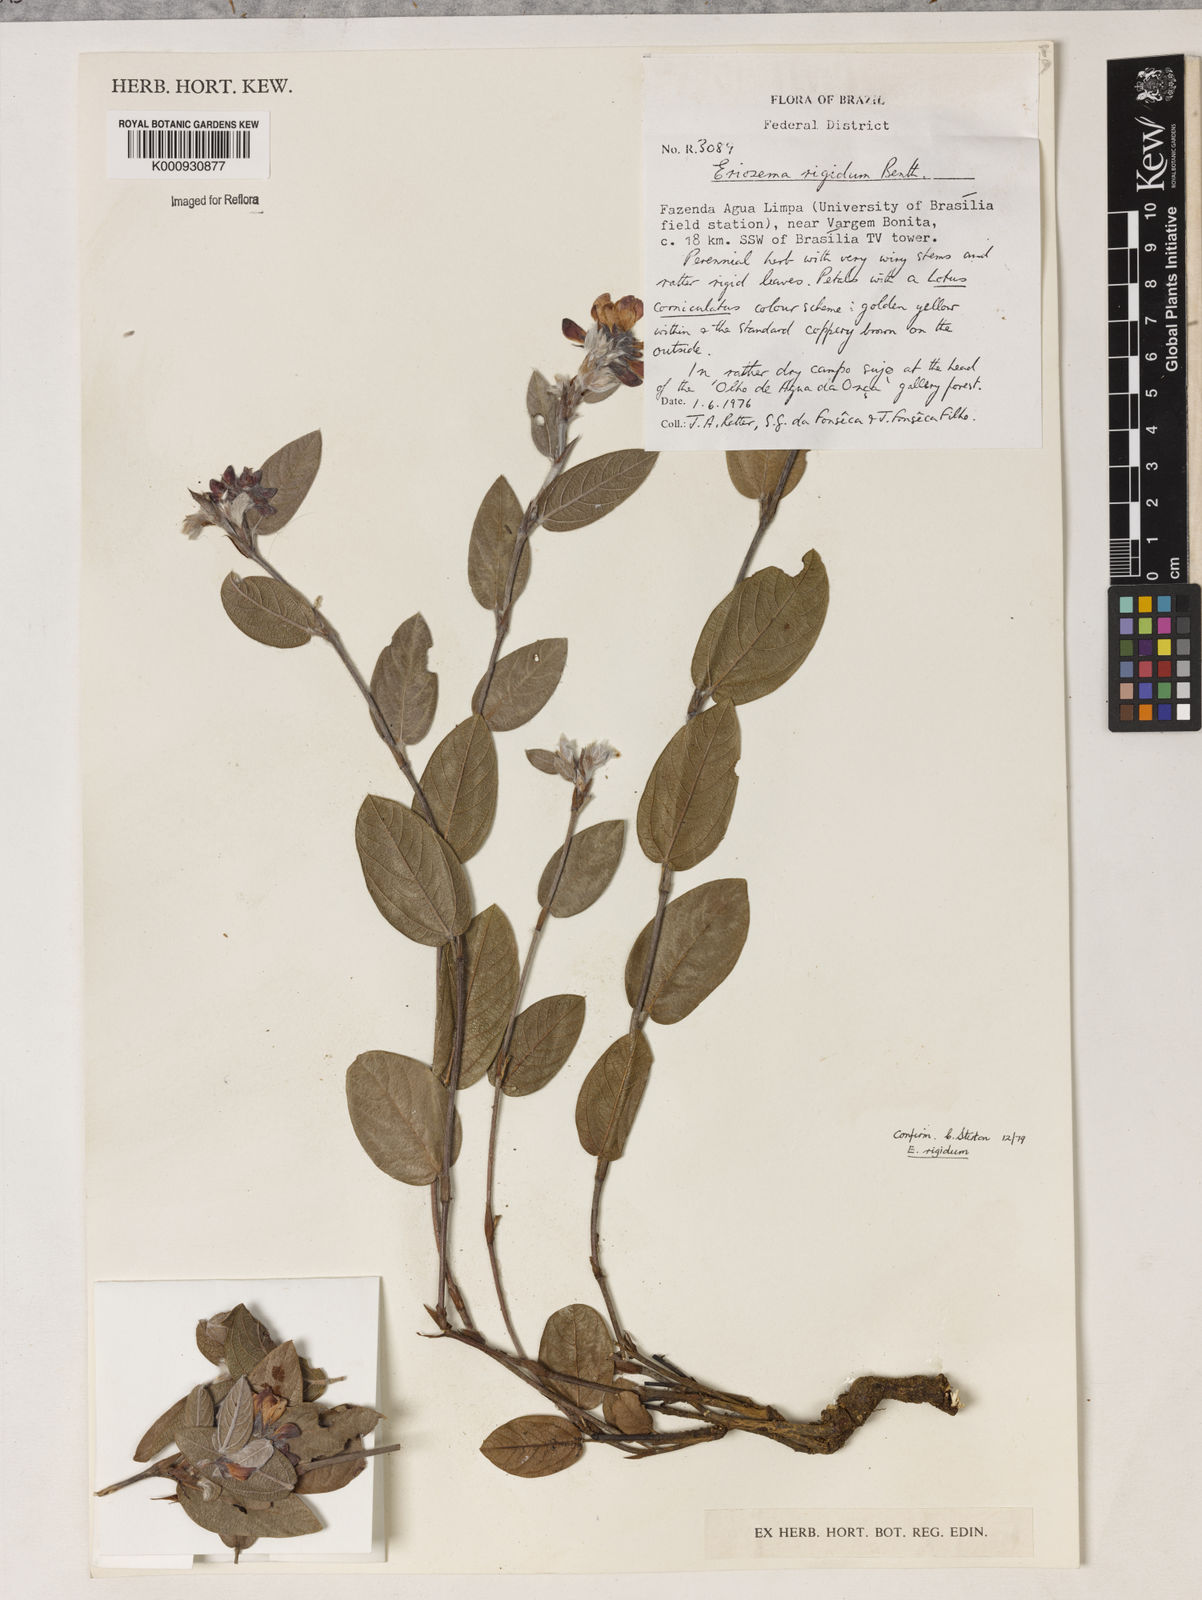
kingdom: Plantae
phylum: Tracheophyta
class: Magnoliopsida
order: Fabales
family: Fabaceae
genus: Eriosema
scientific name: Eriosema rigidum
